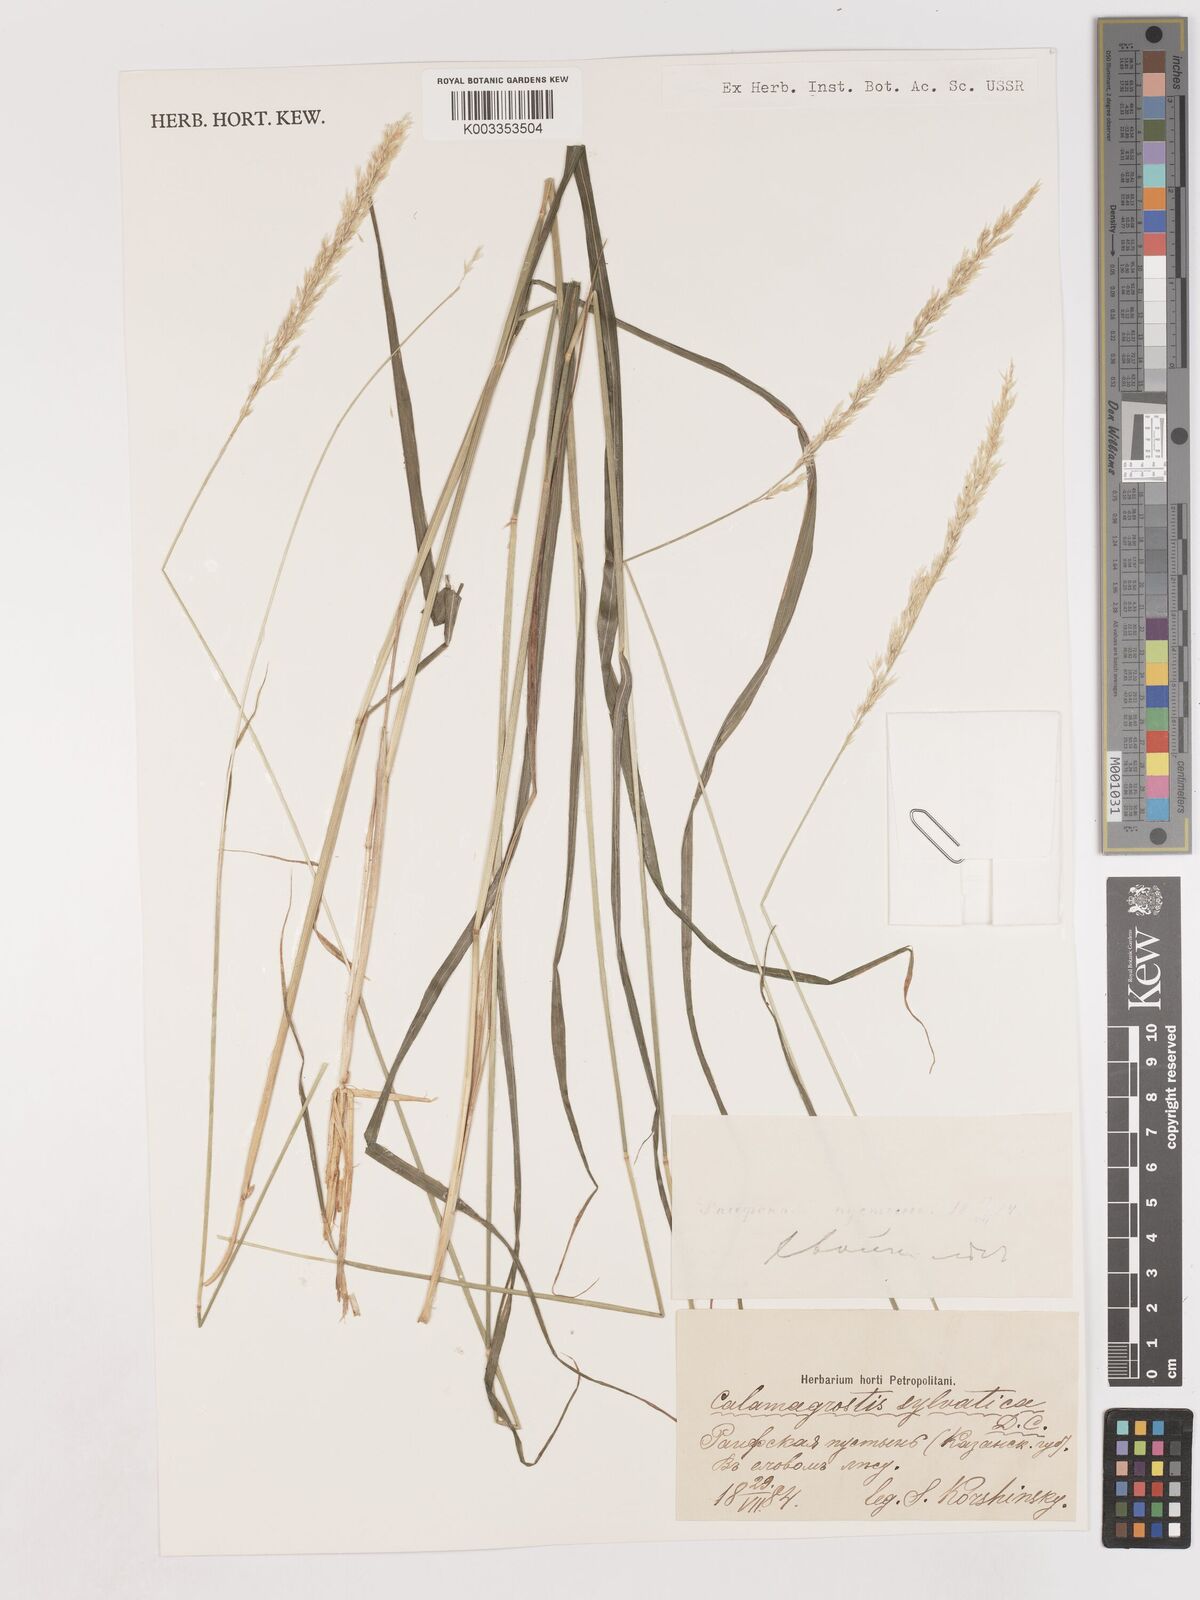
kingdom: Plantae
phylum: Tracheophyta
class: Liliopsida
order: Poales
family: Poaceae
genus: Calamagrostis
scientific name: Calamagrostis
